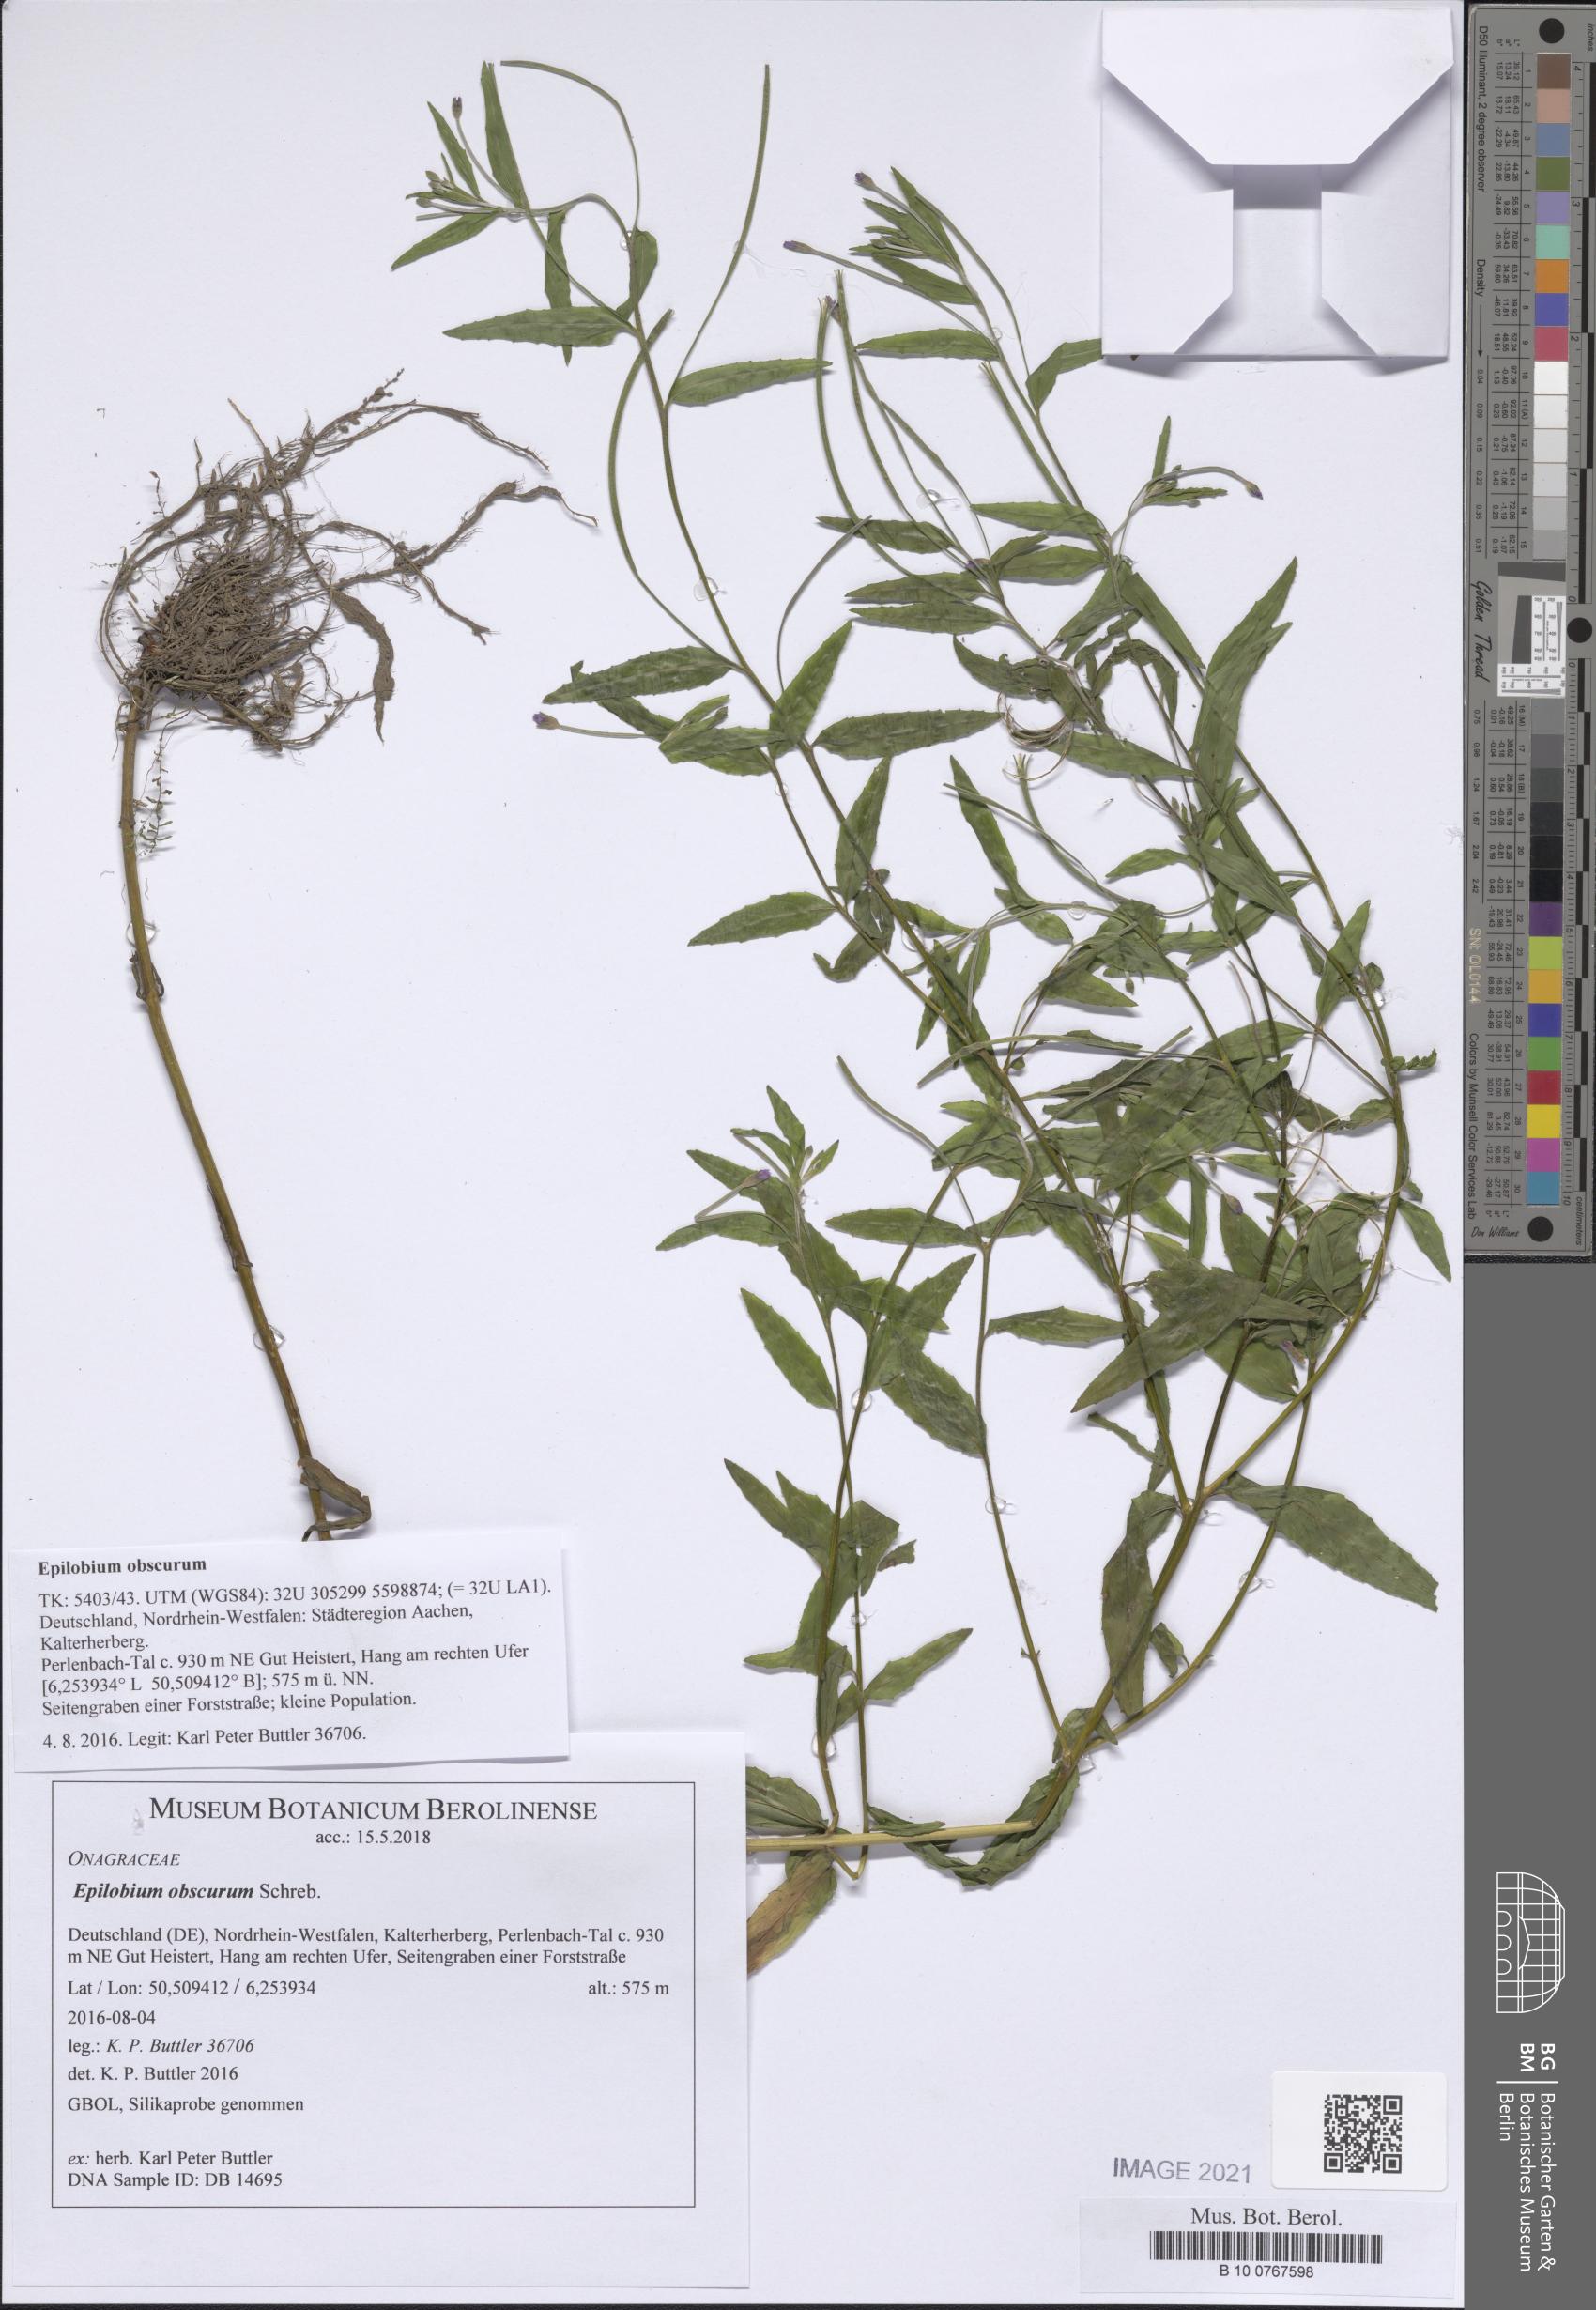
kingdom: Plantae
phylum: Tracheophyta
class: Magnoliopsida
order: Myrtales
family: Onagraceae
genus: Epilobium
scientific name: Epilobium obscurum
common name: Short-fruited willowherb
